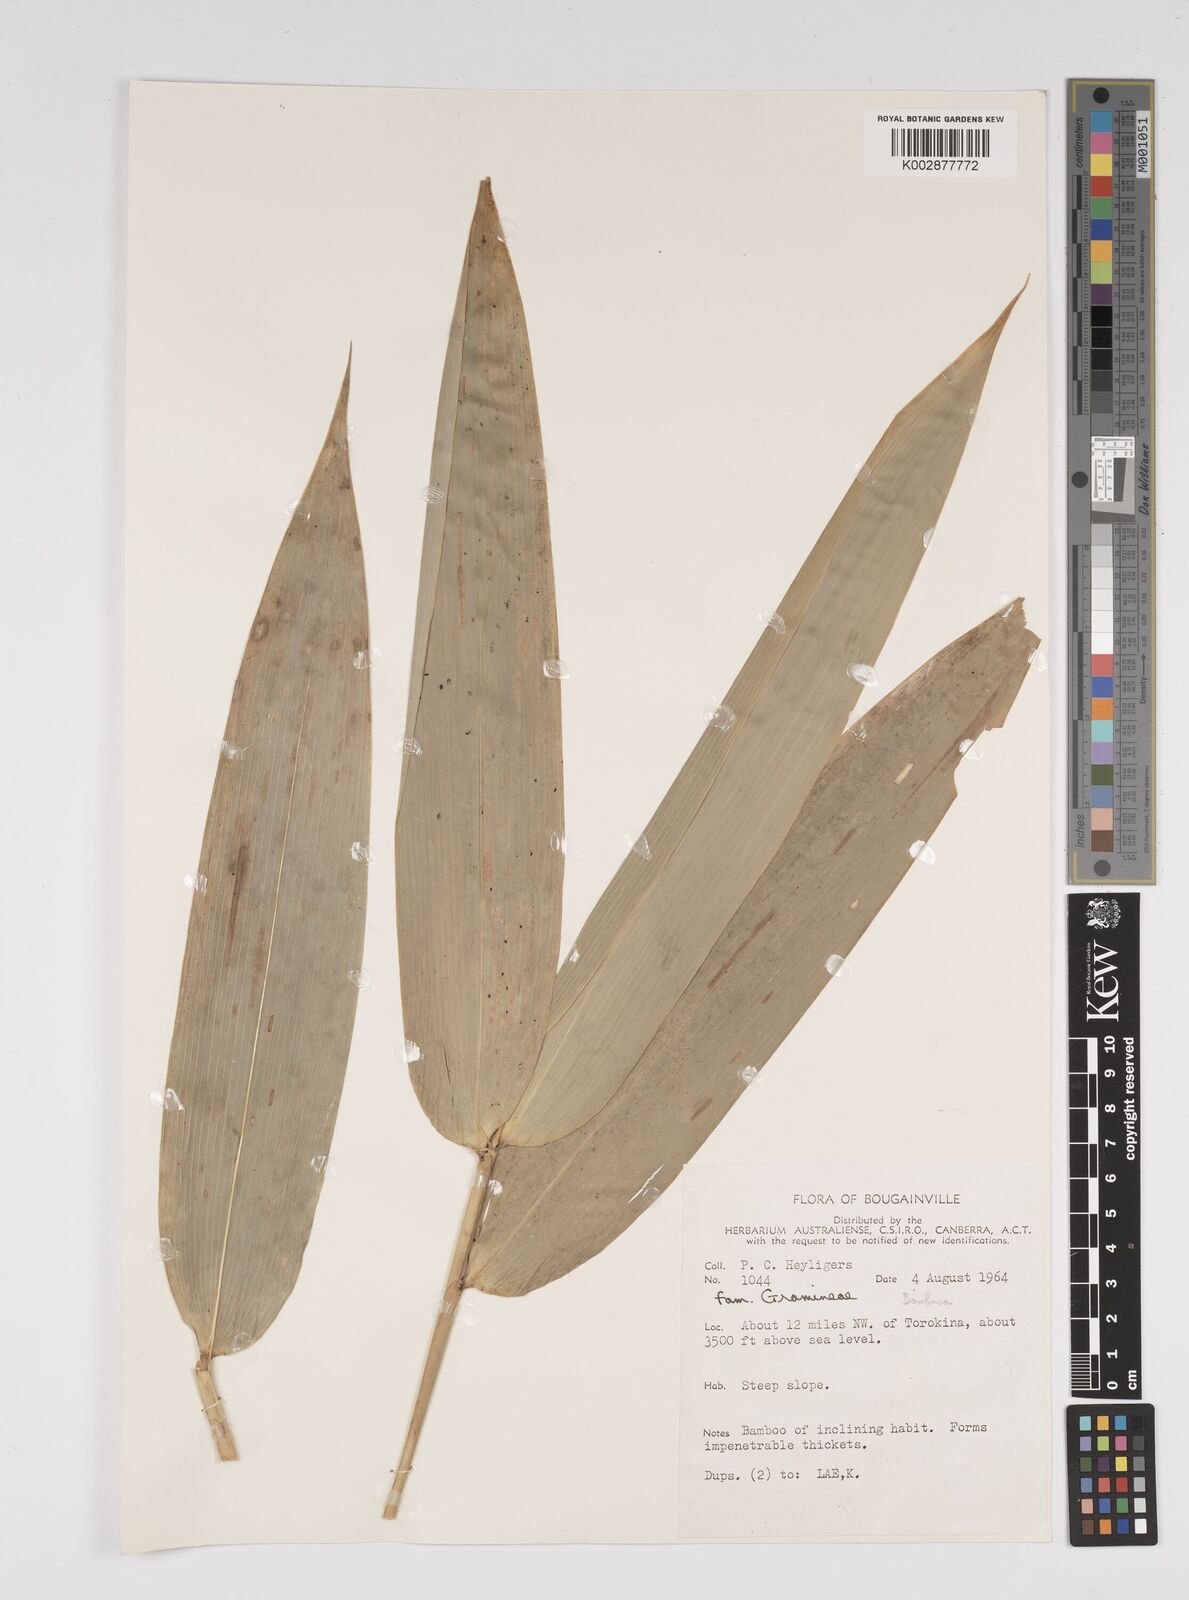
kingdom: Plantae
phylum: Tracheophyta
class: Liliopsida
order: Poales
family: Poaceae
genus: Bambusa
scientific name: Bambusa
